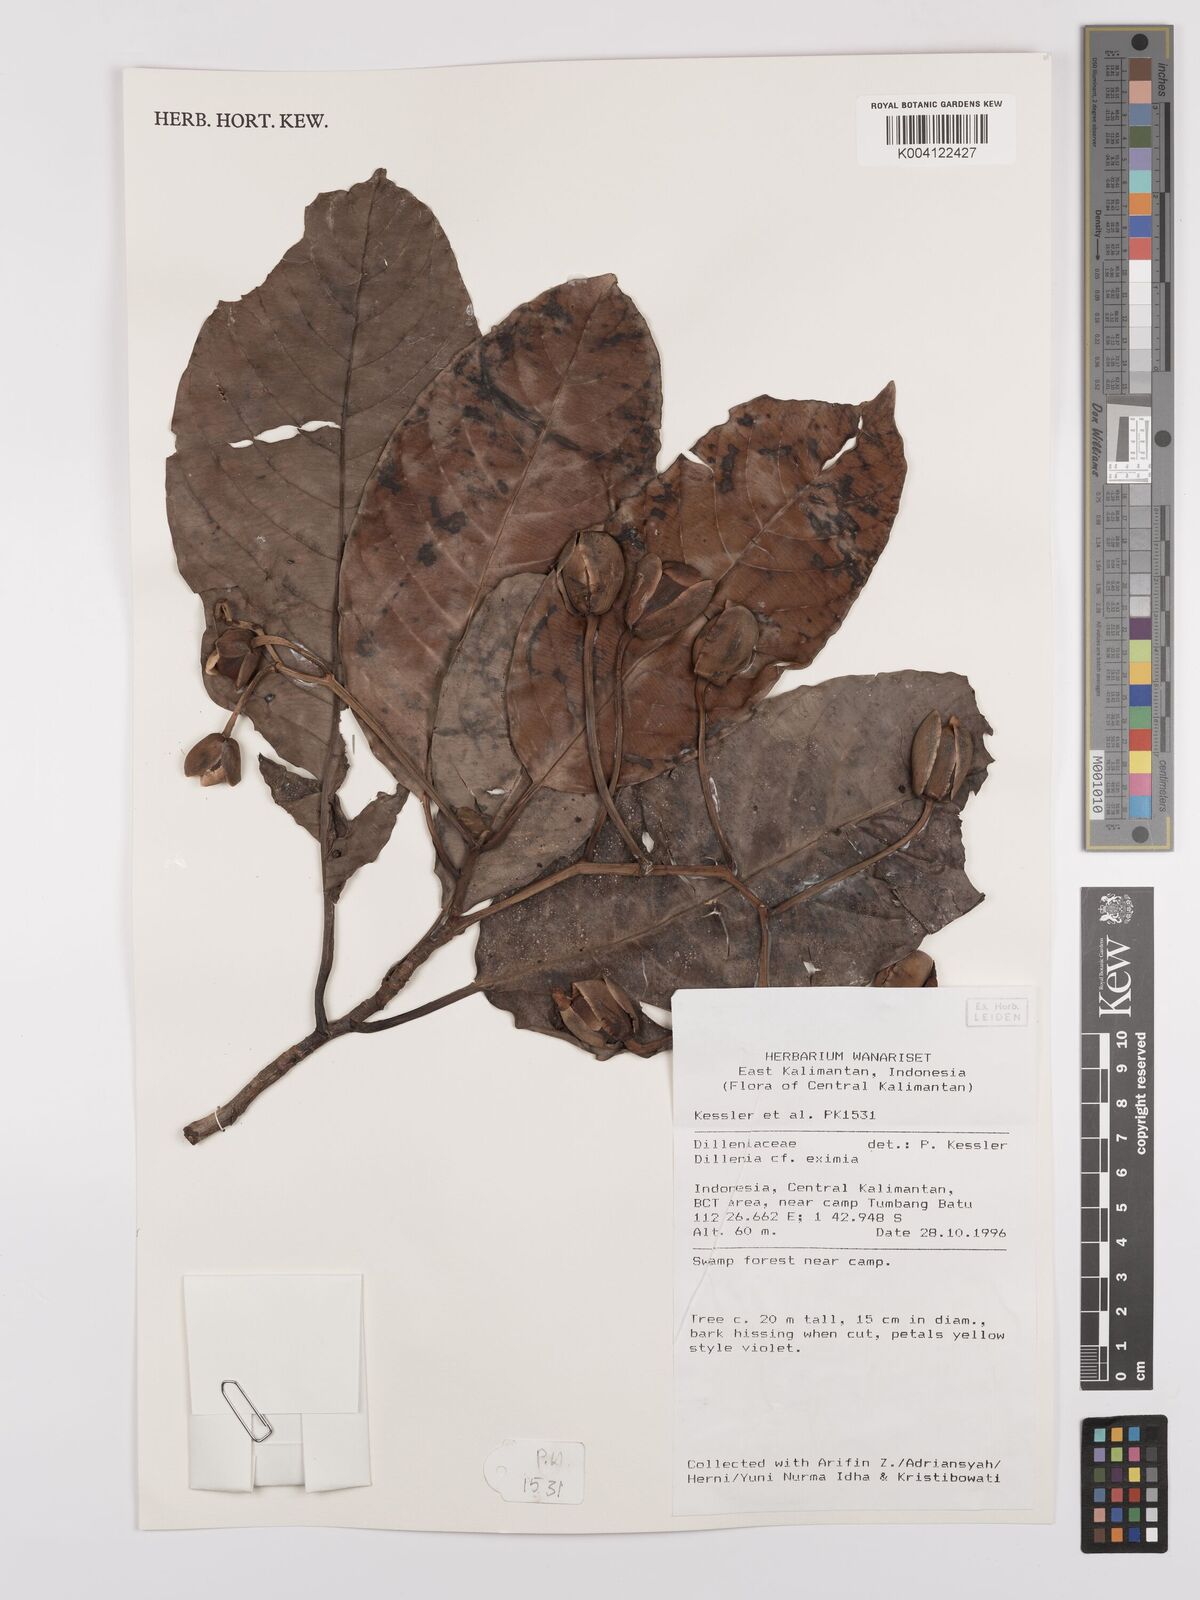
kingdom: Plantae
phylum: Tracheophyta
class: Magnoliopsida
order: Dilleniales
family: Dilleniaceae
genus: Dillenia
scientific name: Dillenia grandifolia
